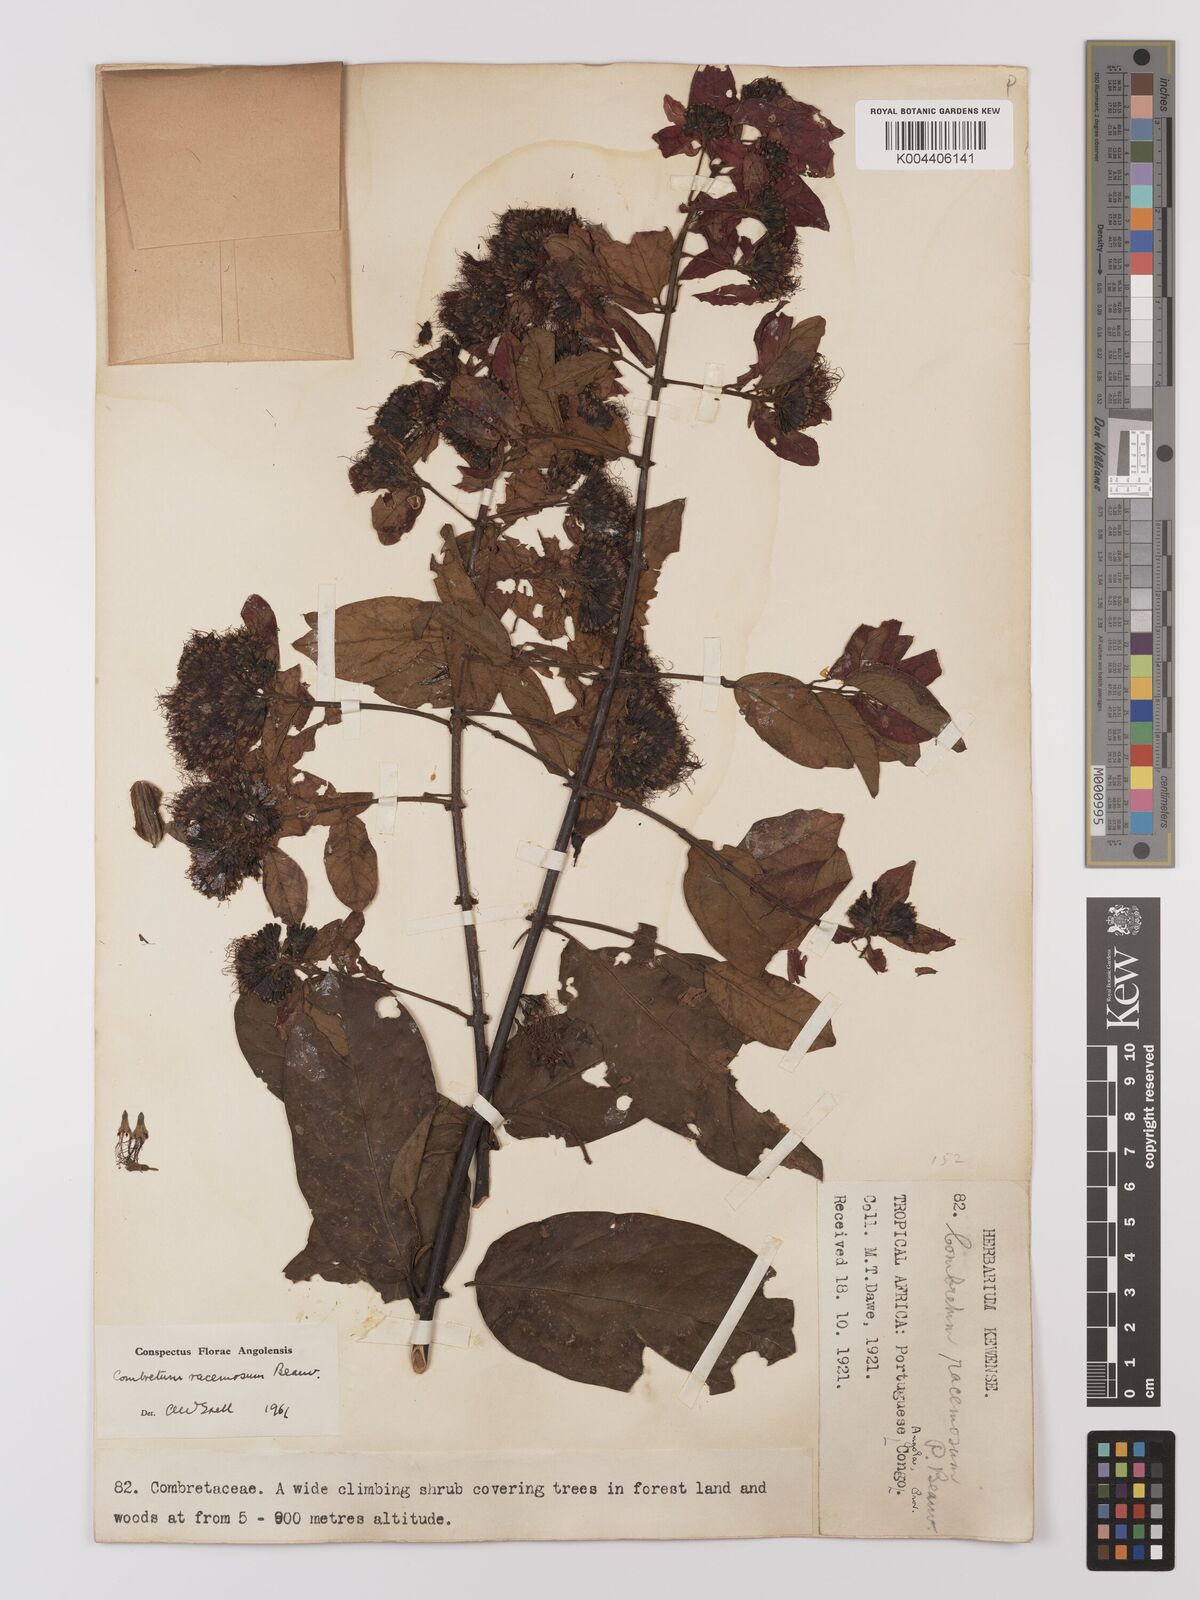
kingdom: Plantae
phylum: Tracheophyta
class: Magnoliopsida
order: Myrtales
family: Combretaceae
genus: Combretum
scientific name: Combretum racemosum
